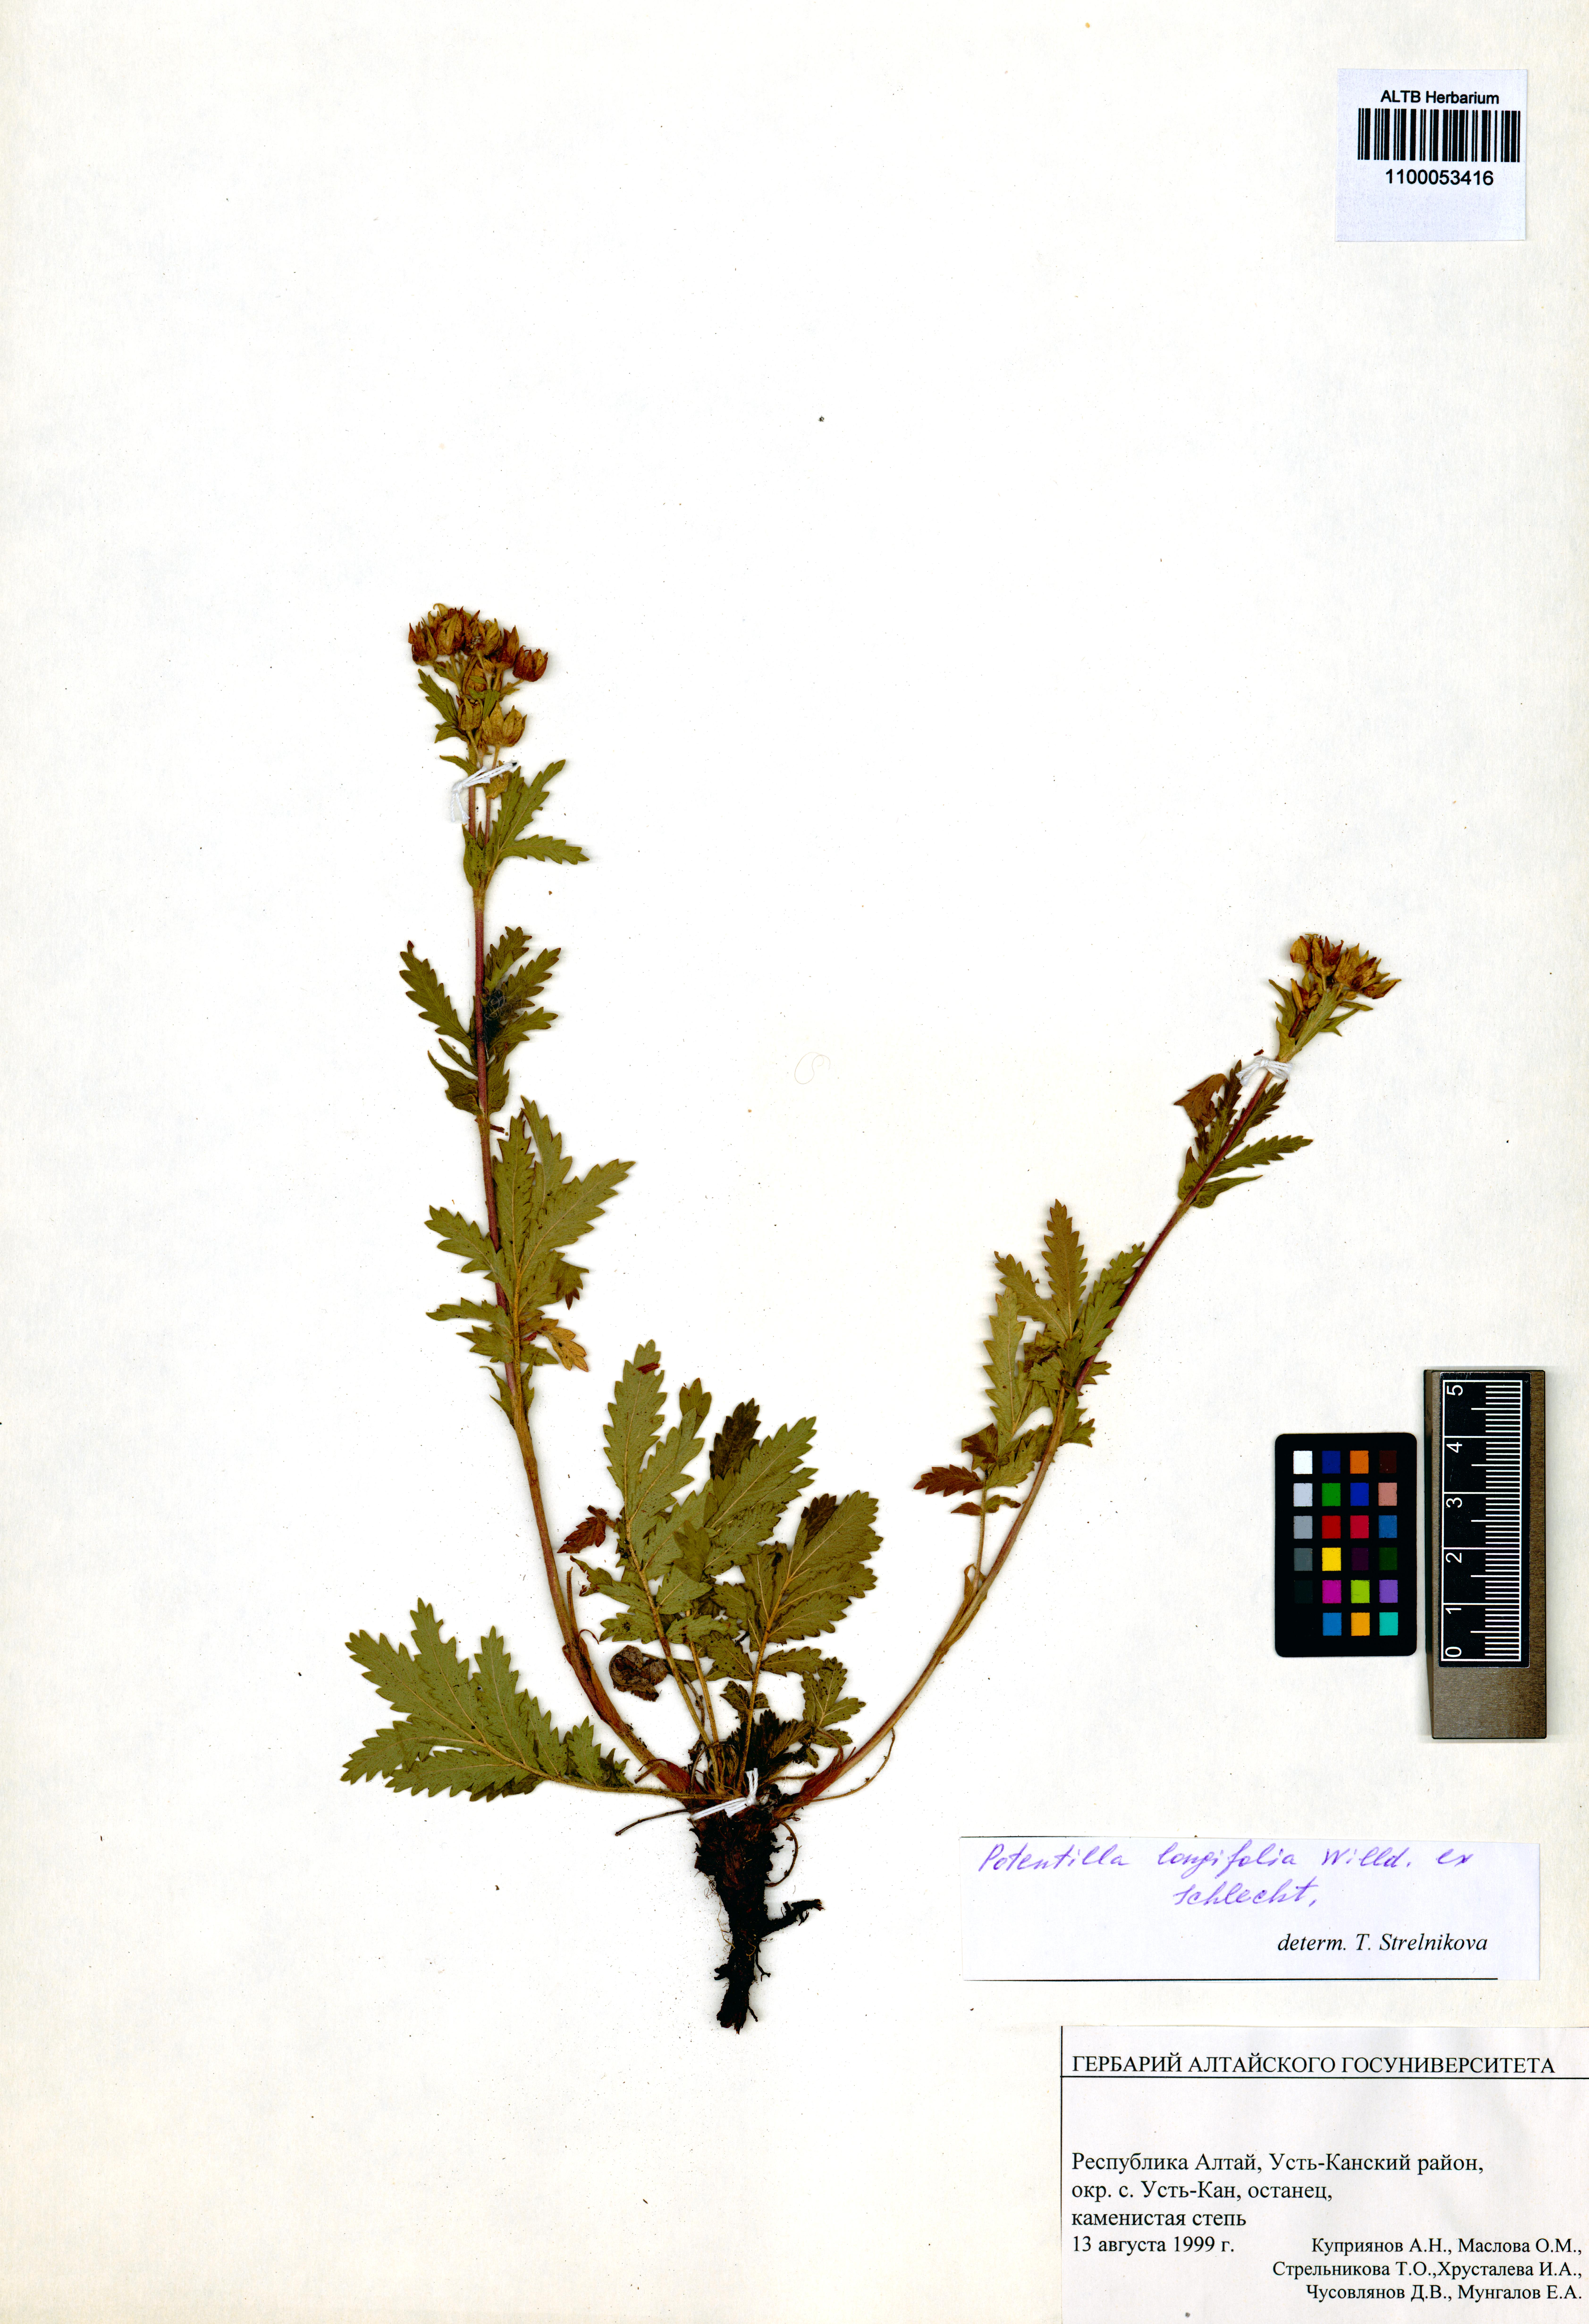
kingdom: Plantae
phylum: Tracheophyta
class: Magnoliopsida
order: Rosales
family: Rosaceae
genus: Potentilla
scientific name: Potentilla longifolia
